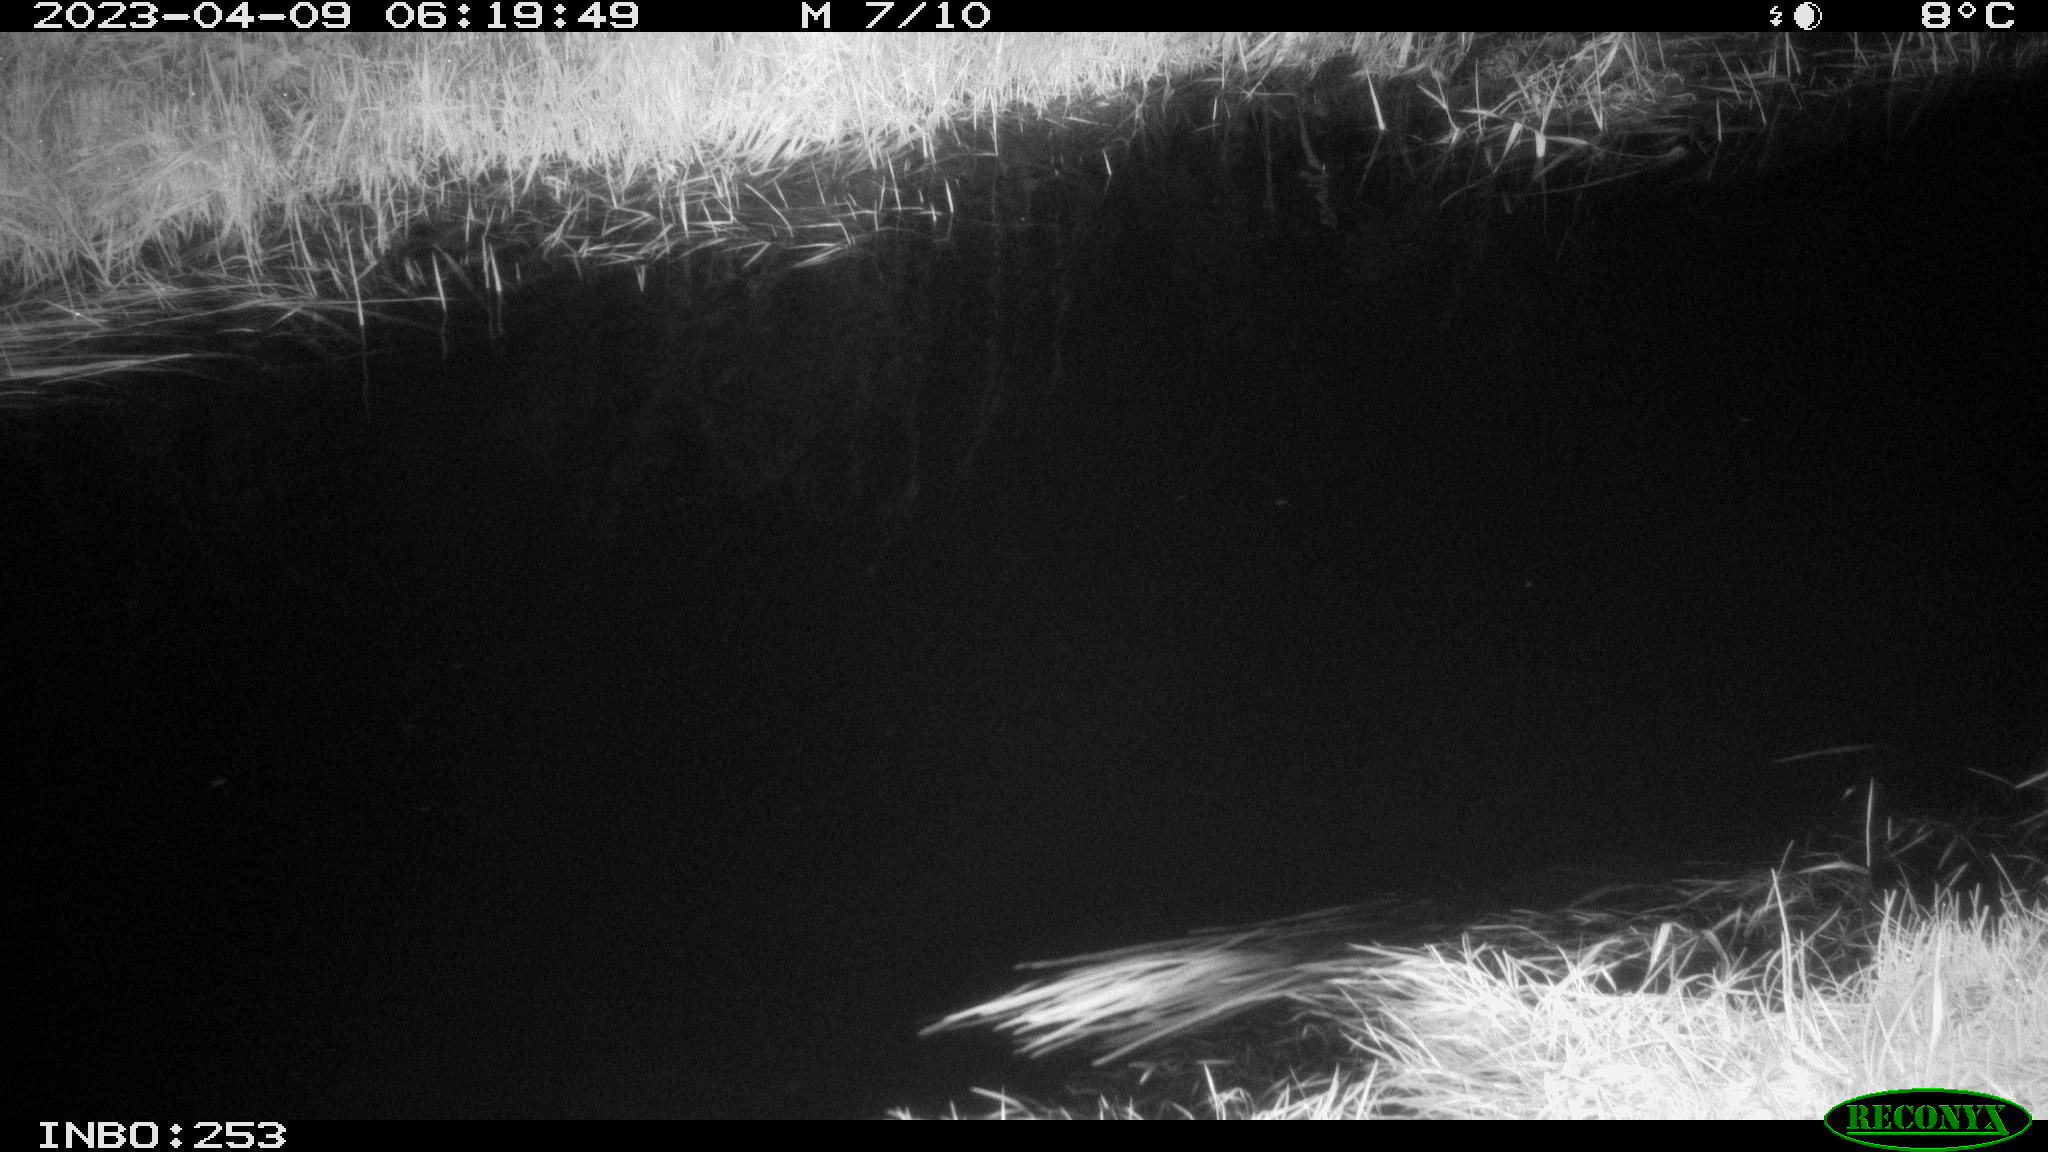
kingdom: Animalia
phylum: Chordata
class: Aves
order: Anseriformes
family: Anatidae
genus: Anas
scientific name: Anas
